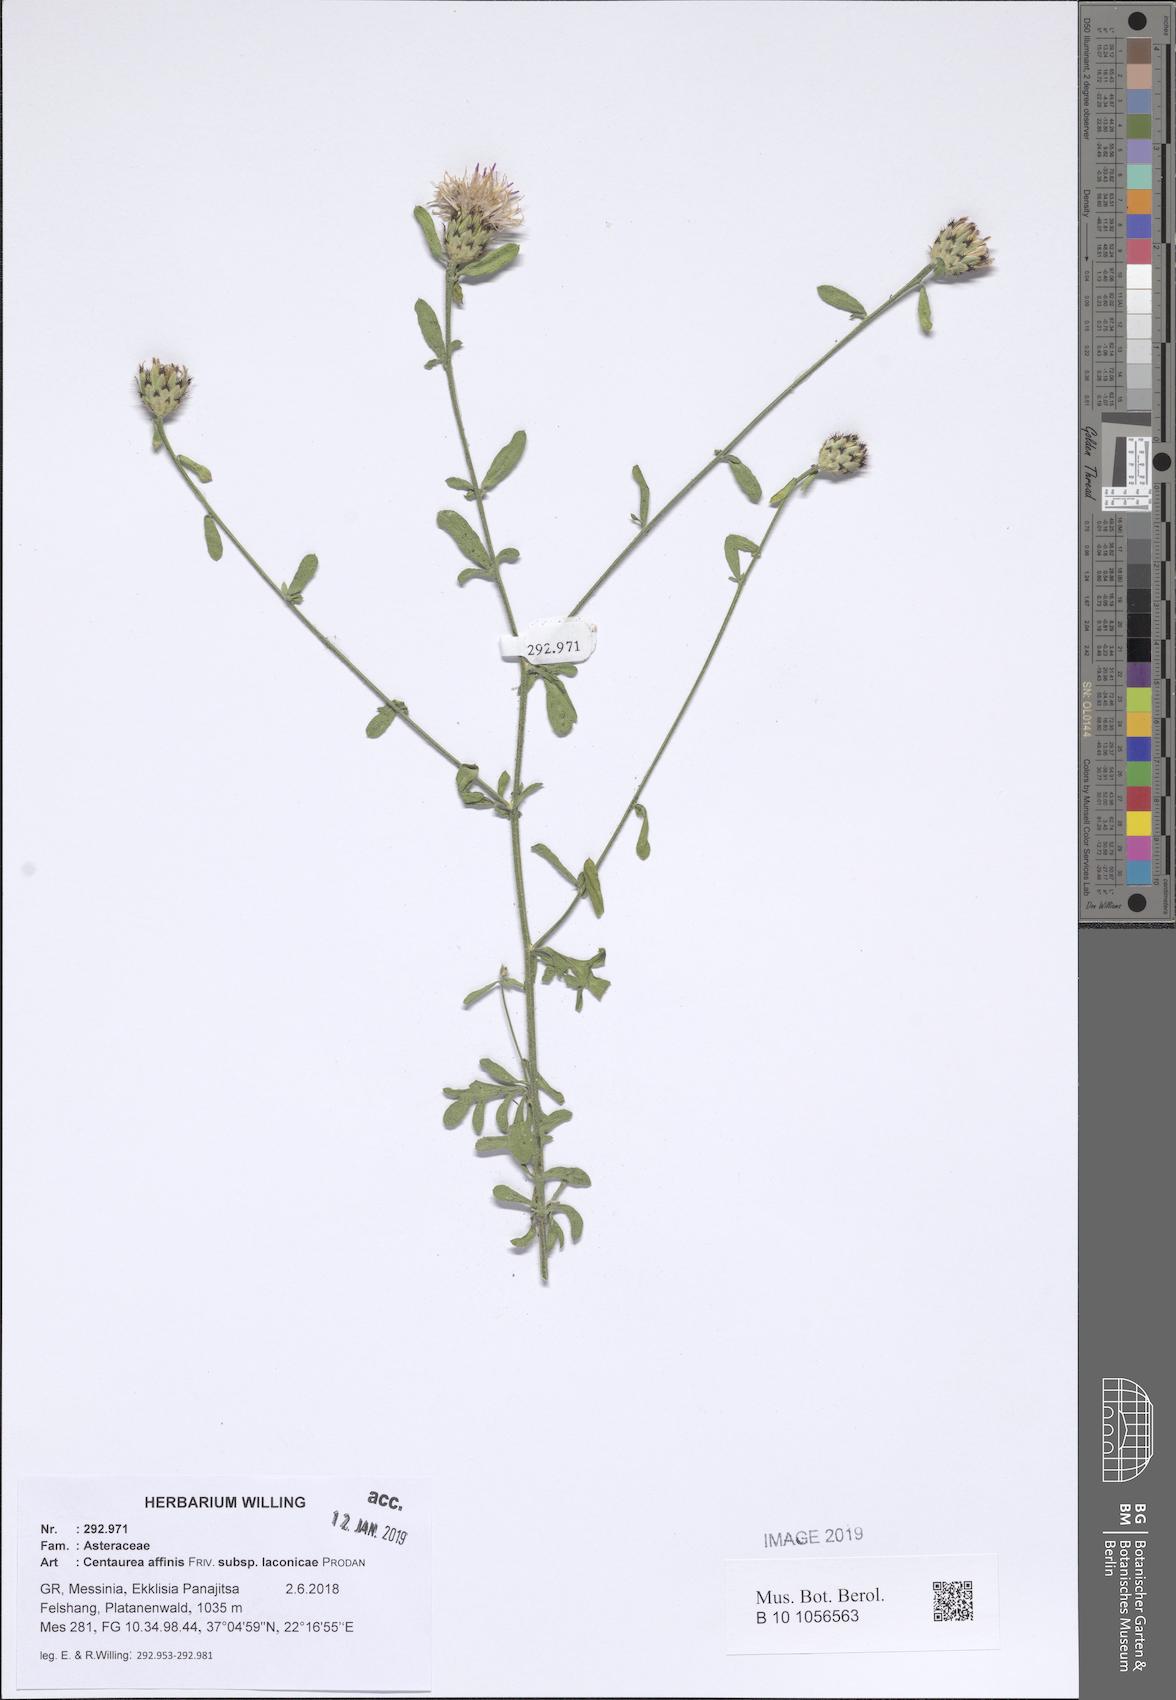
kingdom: Plantae
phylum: Tracheophyta
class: Magnoliopsida
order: Asterales
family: Asteraceae
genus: Centaurea
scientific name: Centaurea affinis
